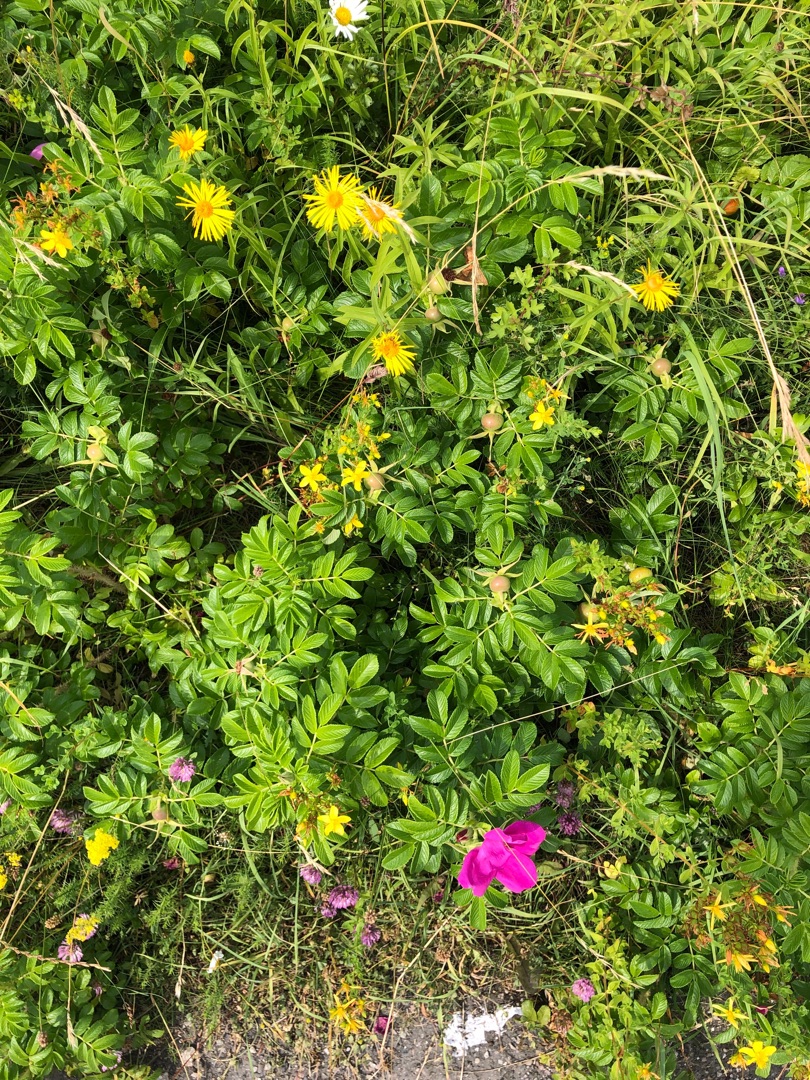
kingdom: Plantae
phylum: Tracheophyta
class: Magnoliopsida
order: Rosales
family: Rosaceae
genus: Rosa
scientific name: Rosa rugosa
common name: Rynket rose
